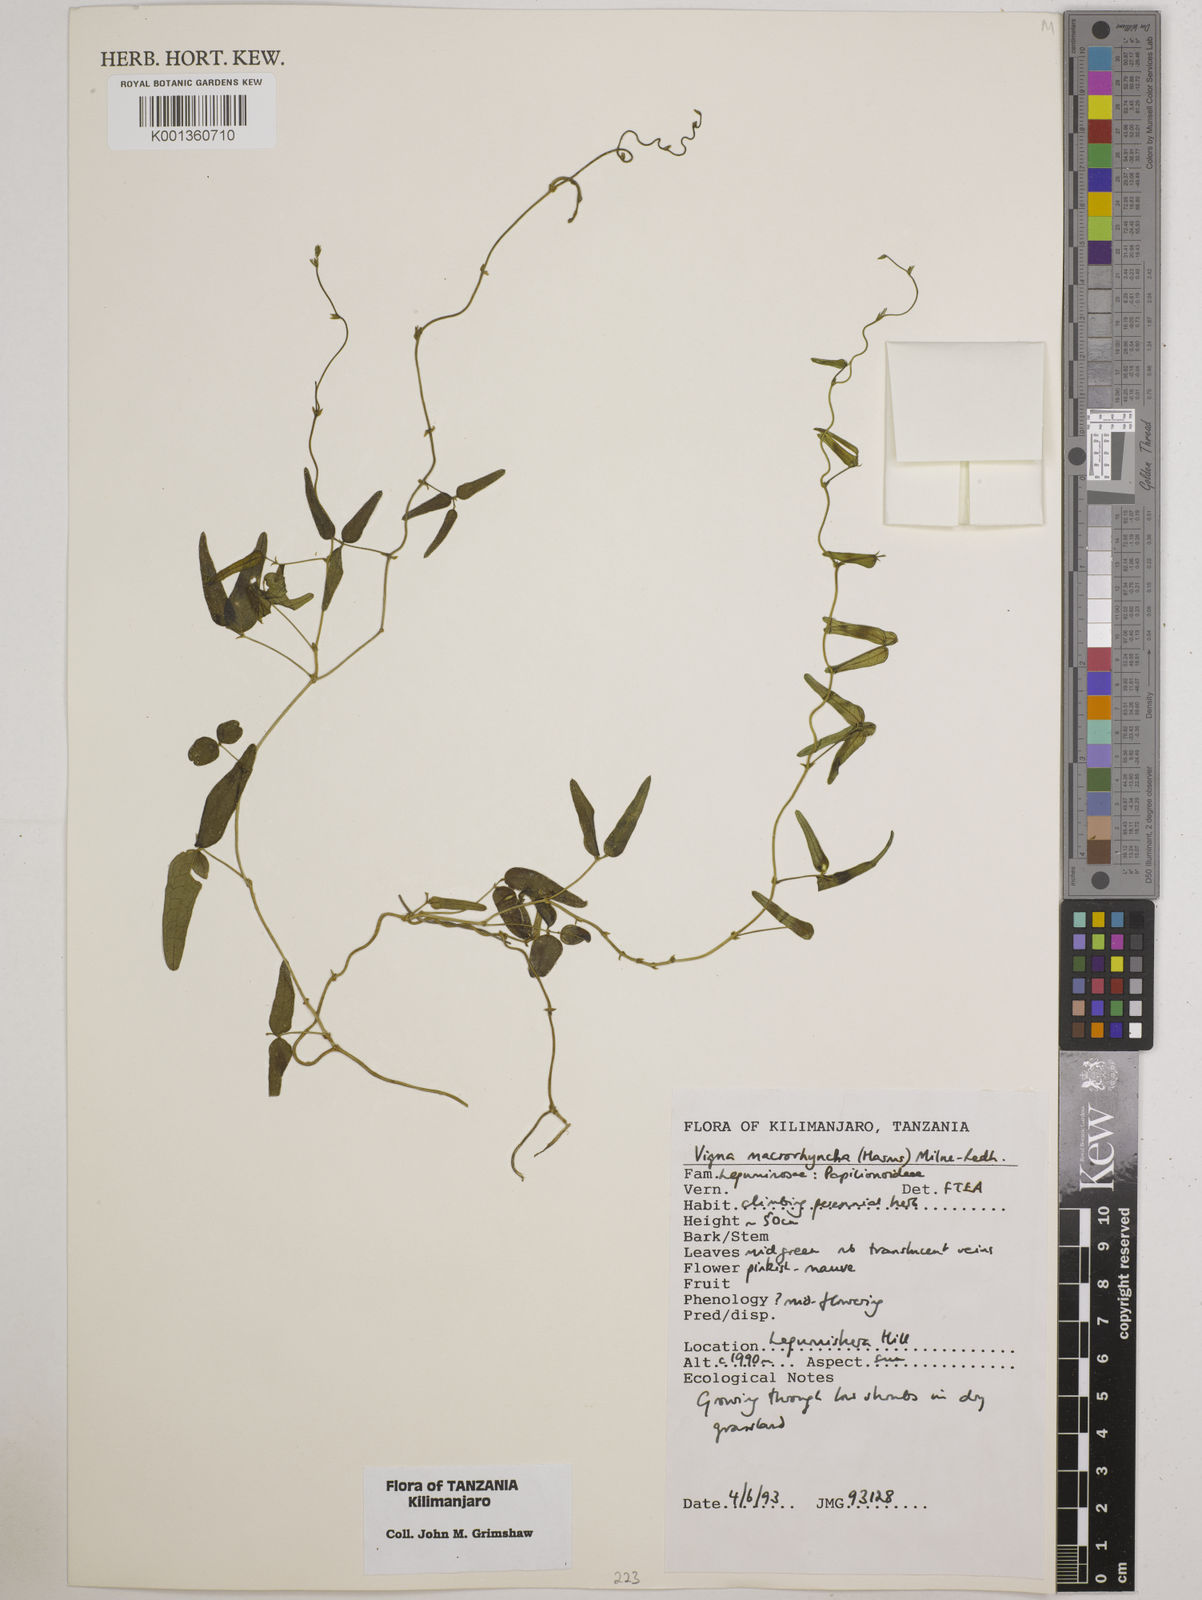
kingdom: Plantae
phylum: Tracheophyta
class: Magnoliopsida
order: Fabales
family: Fabaceae
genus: Wajira
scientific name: Wajira grahamiana
